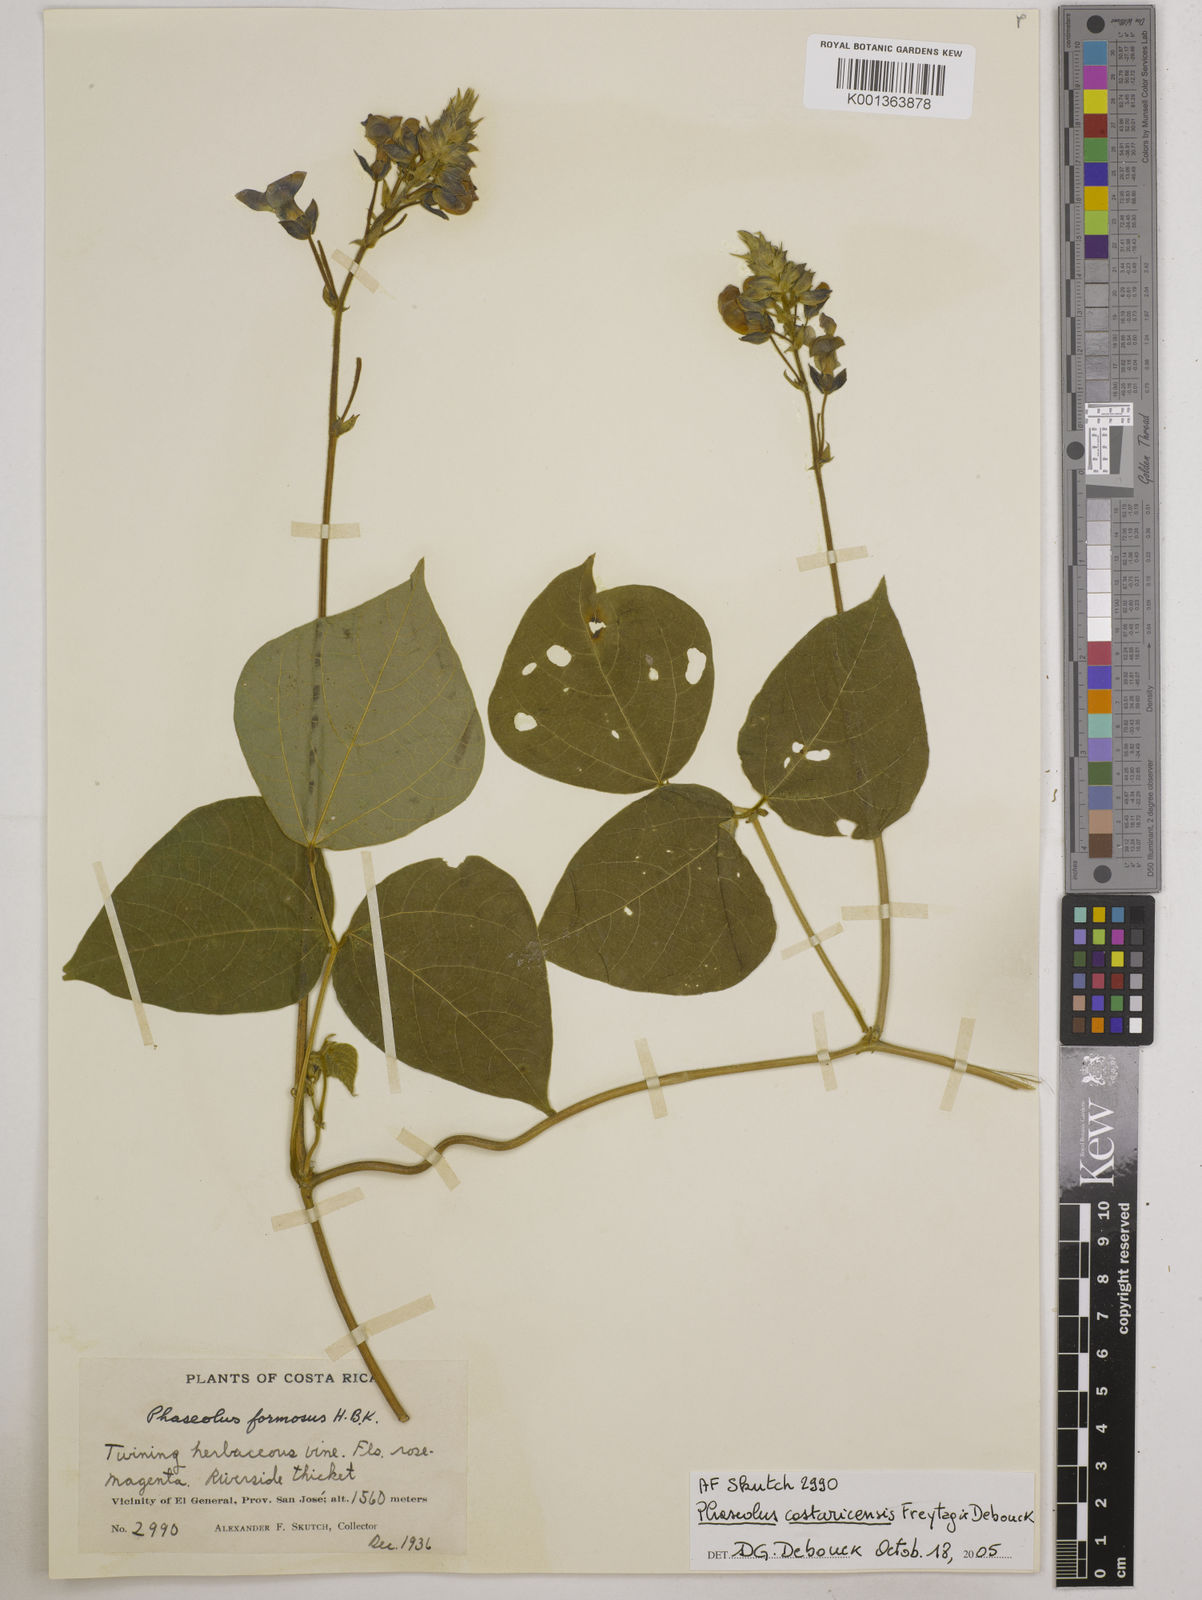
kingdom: Plantae
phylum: Tracheophyta
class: Magnoliopsida
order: Fabales
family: Fabaceae
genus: Phaseolus
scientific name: Phaseolus costaricensis
